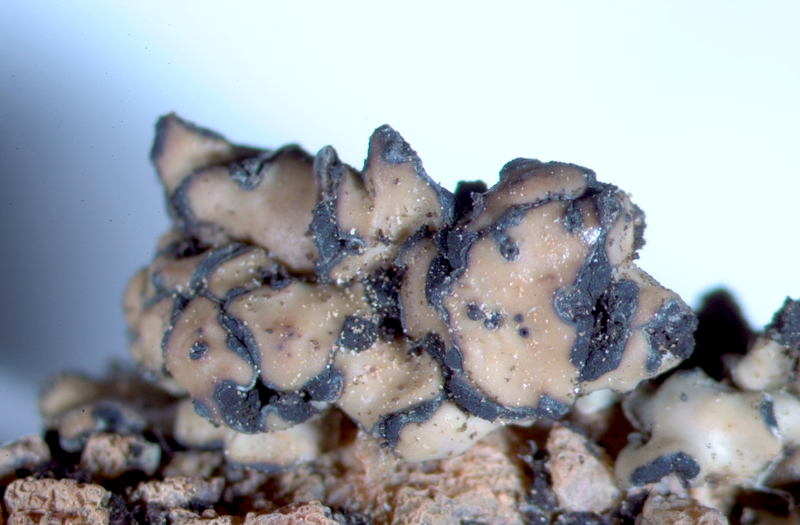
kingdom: Fungi
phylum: Ascomycota
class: Eurotiomycetes
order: Verrucariales
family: Verrucariaceae
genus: Placidium
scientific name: Placidium
